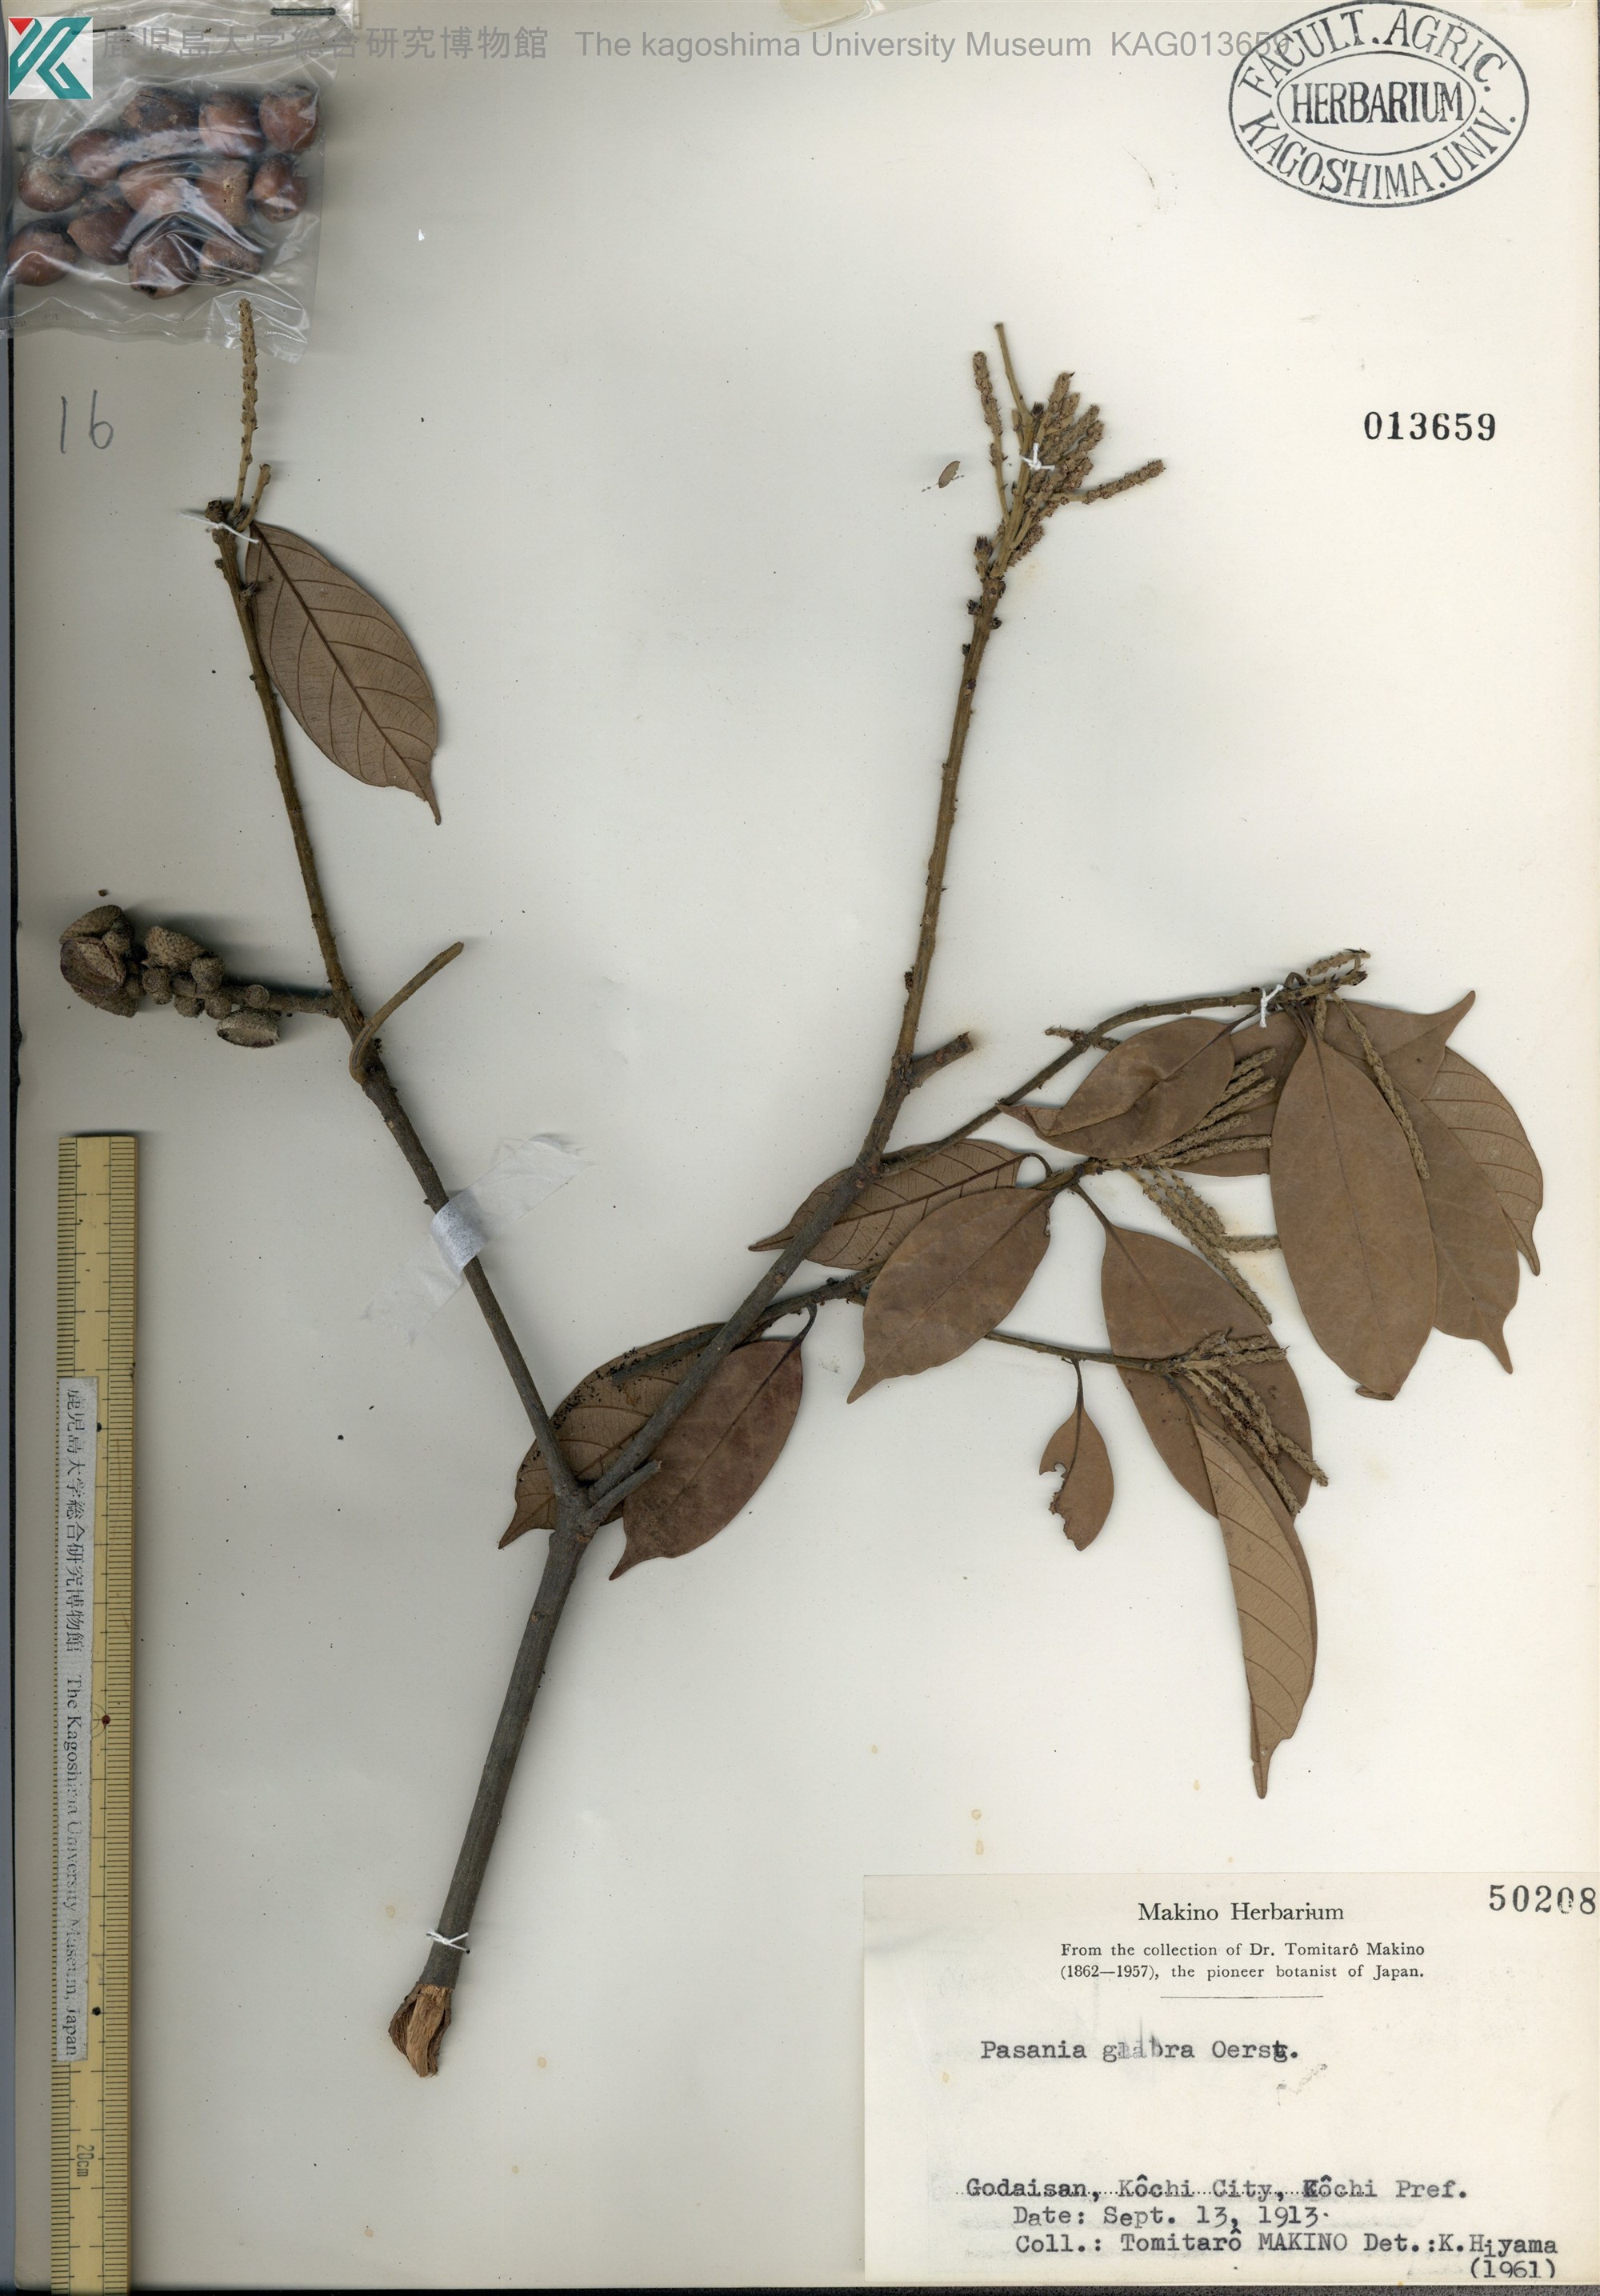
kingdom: Plantae
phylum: Tracheophyta
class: Magnoliopsida
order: Fagales
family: Fagaceae
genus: Lithocarpus
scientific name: Lithocarpus glaber
